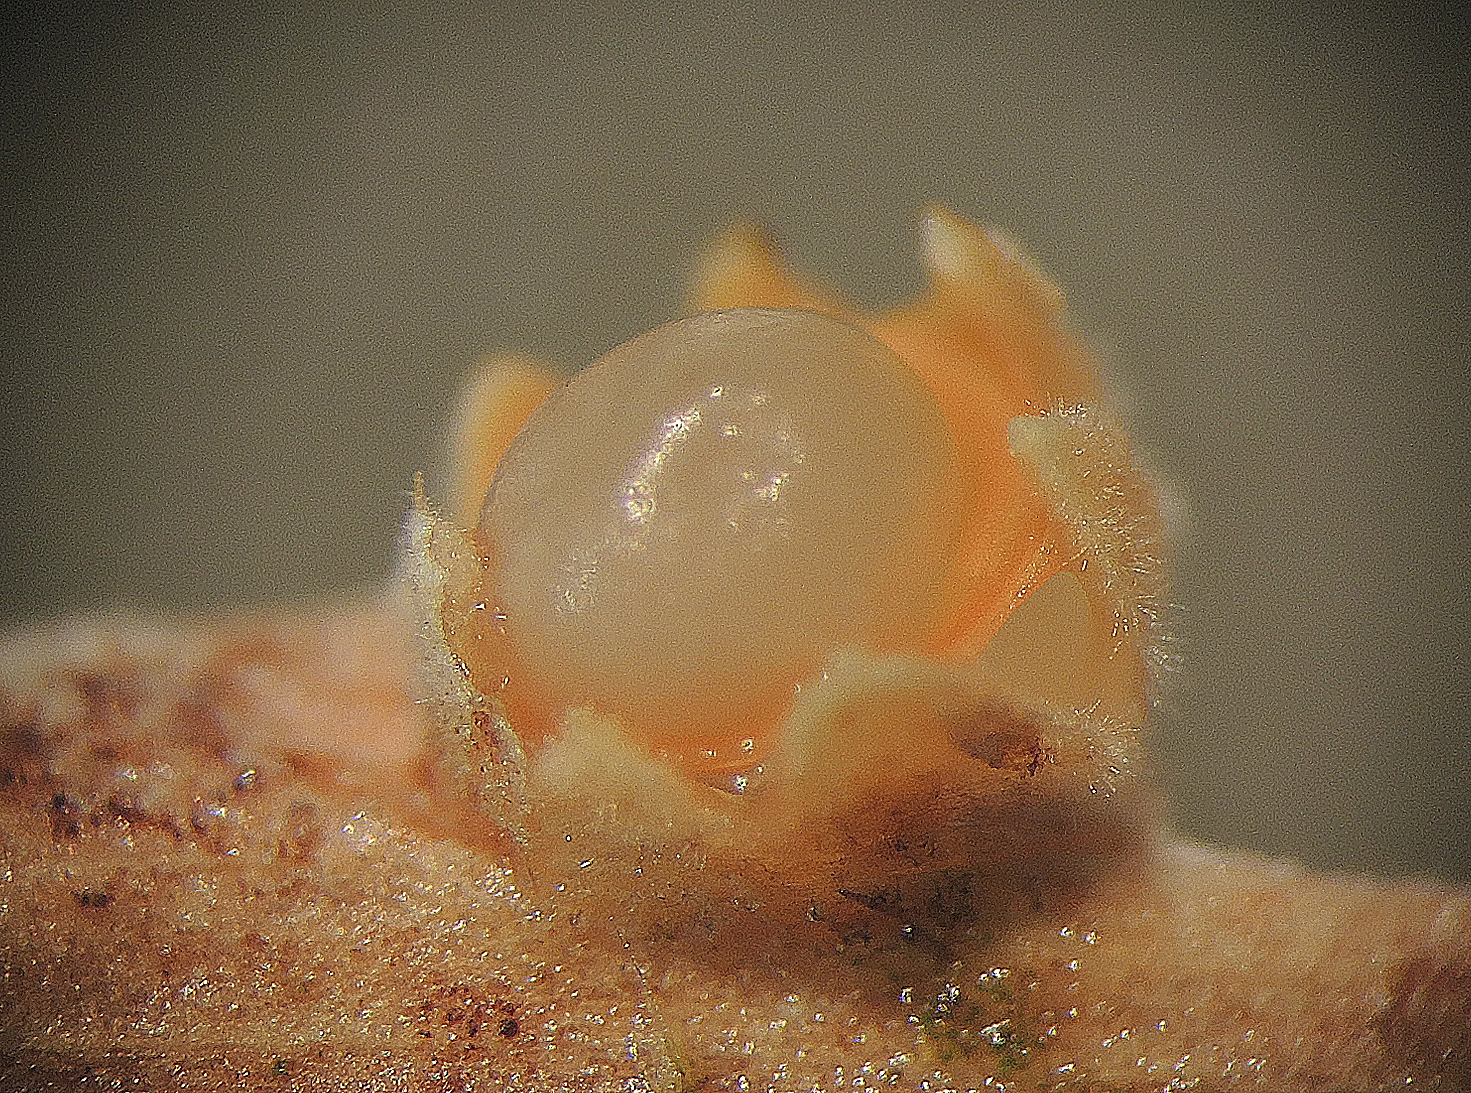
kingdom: Fungi
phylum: Basidiomycota
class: Agaricomycetes
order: Geastrales
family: Geastraceae
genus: Sphaerobolus
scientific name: Sphaerobolus stellatus
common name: bombekaster
